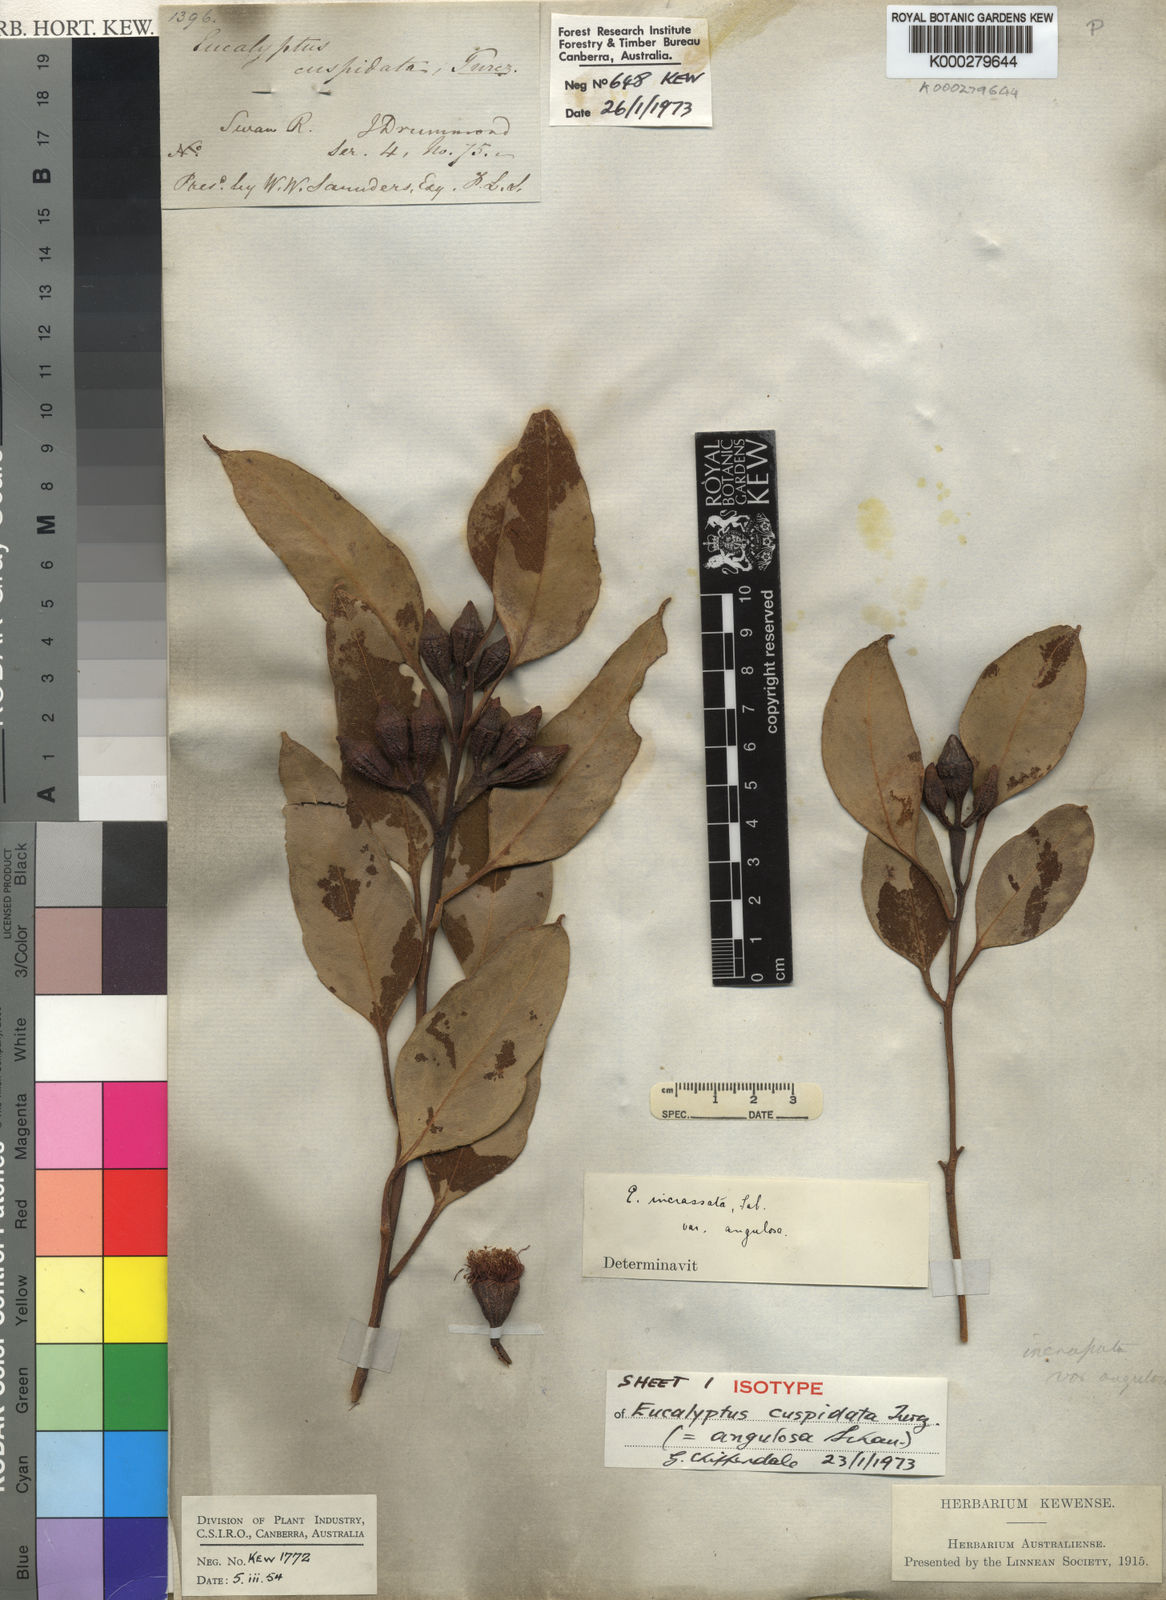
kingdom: Plantae
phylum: Tracheophyta
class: Magnoliopsida
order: Myrtales
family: Myrtaceae
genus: Eucalyptus
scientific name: Eucalyptus angulosa
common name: Ridge-fruited mallee
